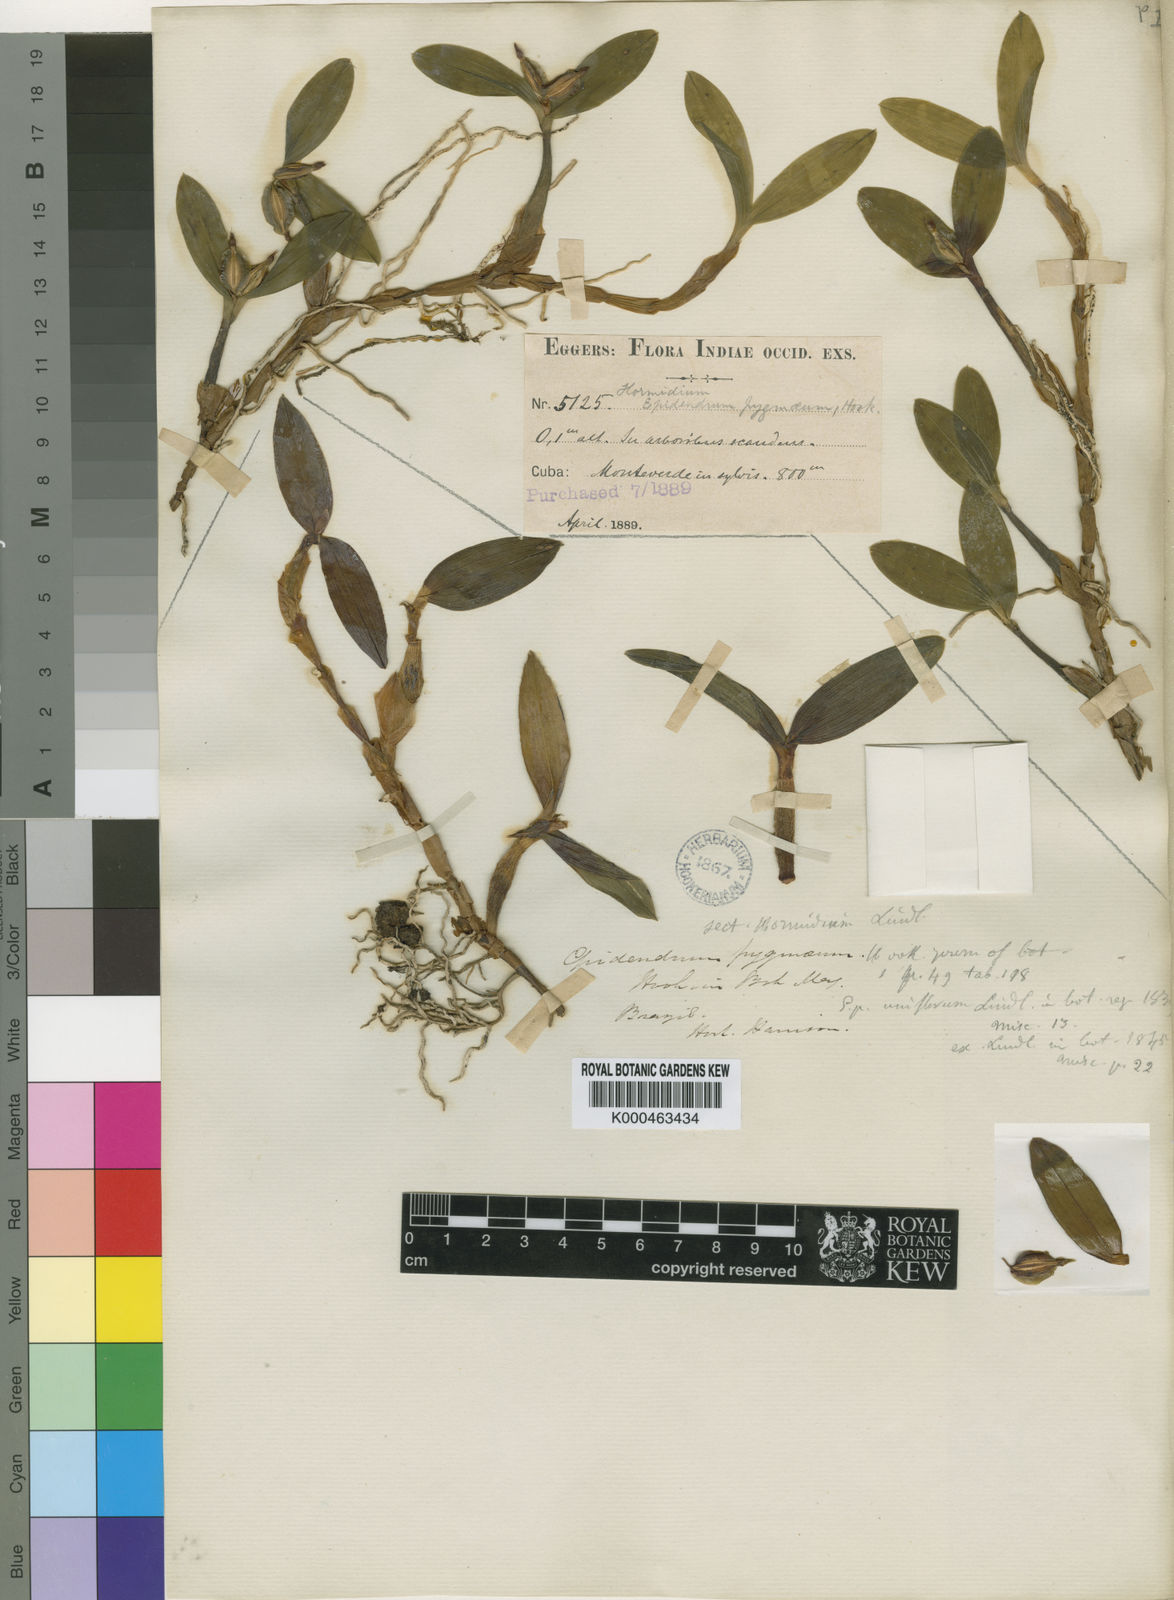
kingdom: Plantae
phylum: Tracheophyta
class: Liliopsida
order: Asparagales
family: Orchidaceae
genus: Prosthechea
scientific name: Prosthechea pygmaea
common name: Dwarf butterfly orchid
